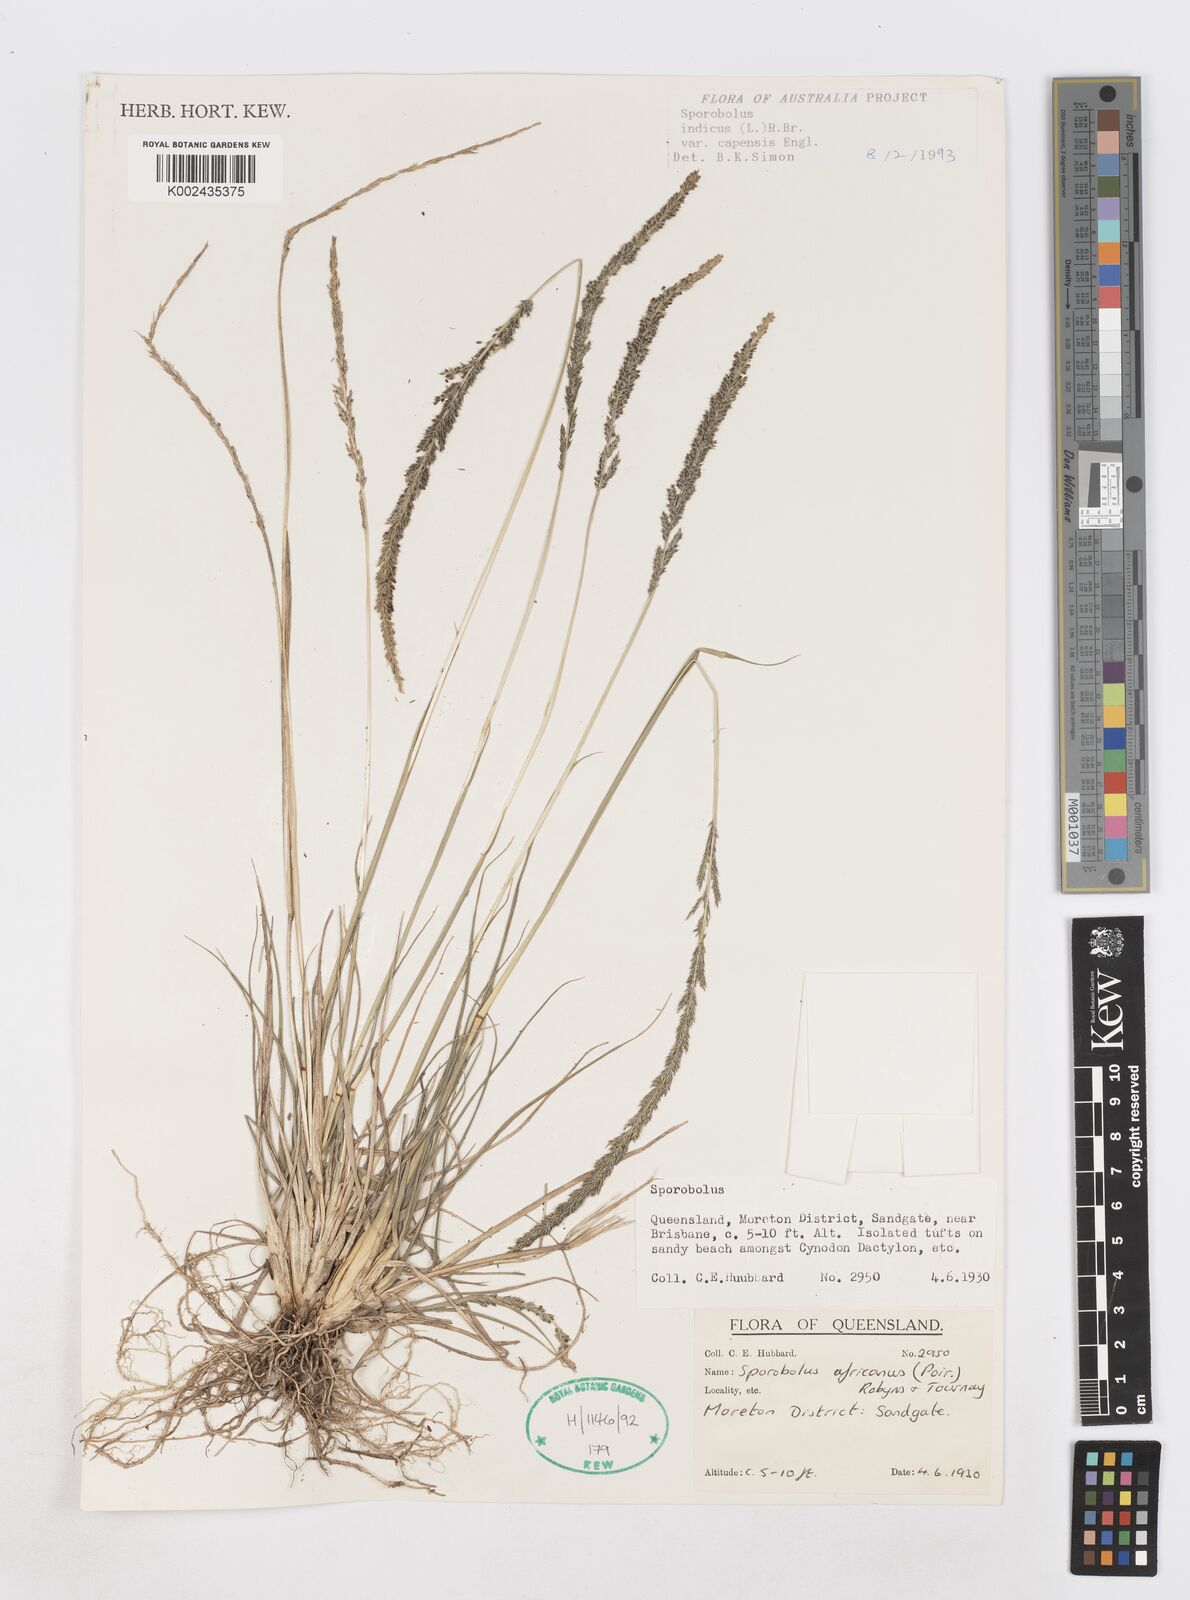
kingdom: Plantae
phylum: Tracheophyta
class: Liliopsida
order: Poales
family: Poaceae
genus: Sporobolus
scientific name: Sporobolus africanus
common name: African dropseed
